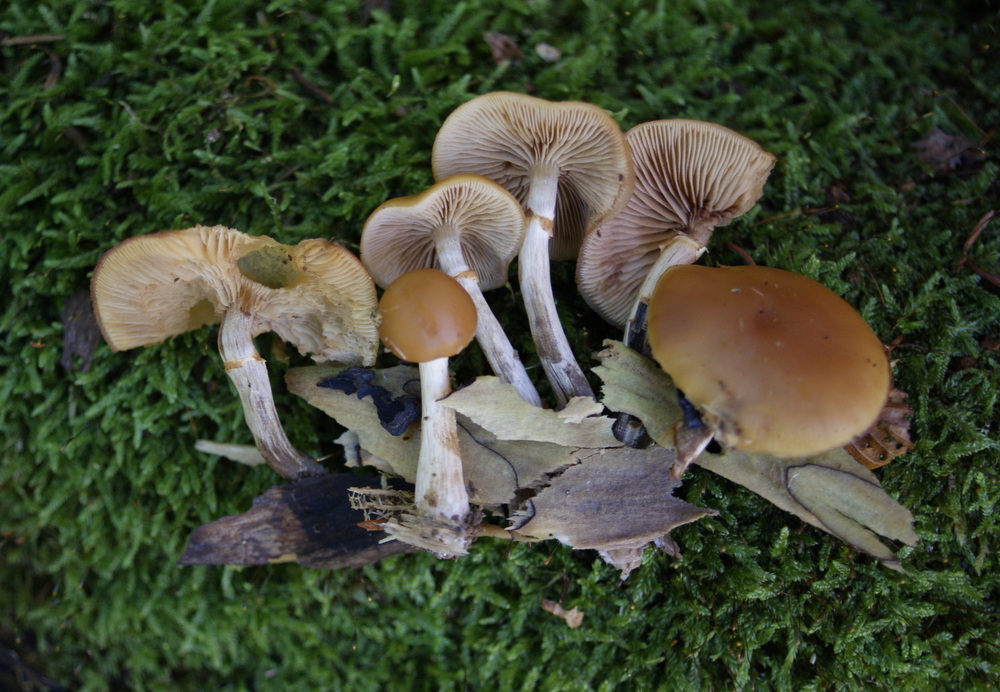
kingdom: Fungi
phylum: Basidiomycota
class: Agaricomycetes
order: Agaricales
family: Hymenogastraceae
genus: Galerina
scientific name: Galerina marginata
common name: randbæltet hjelmhat
